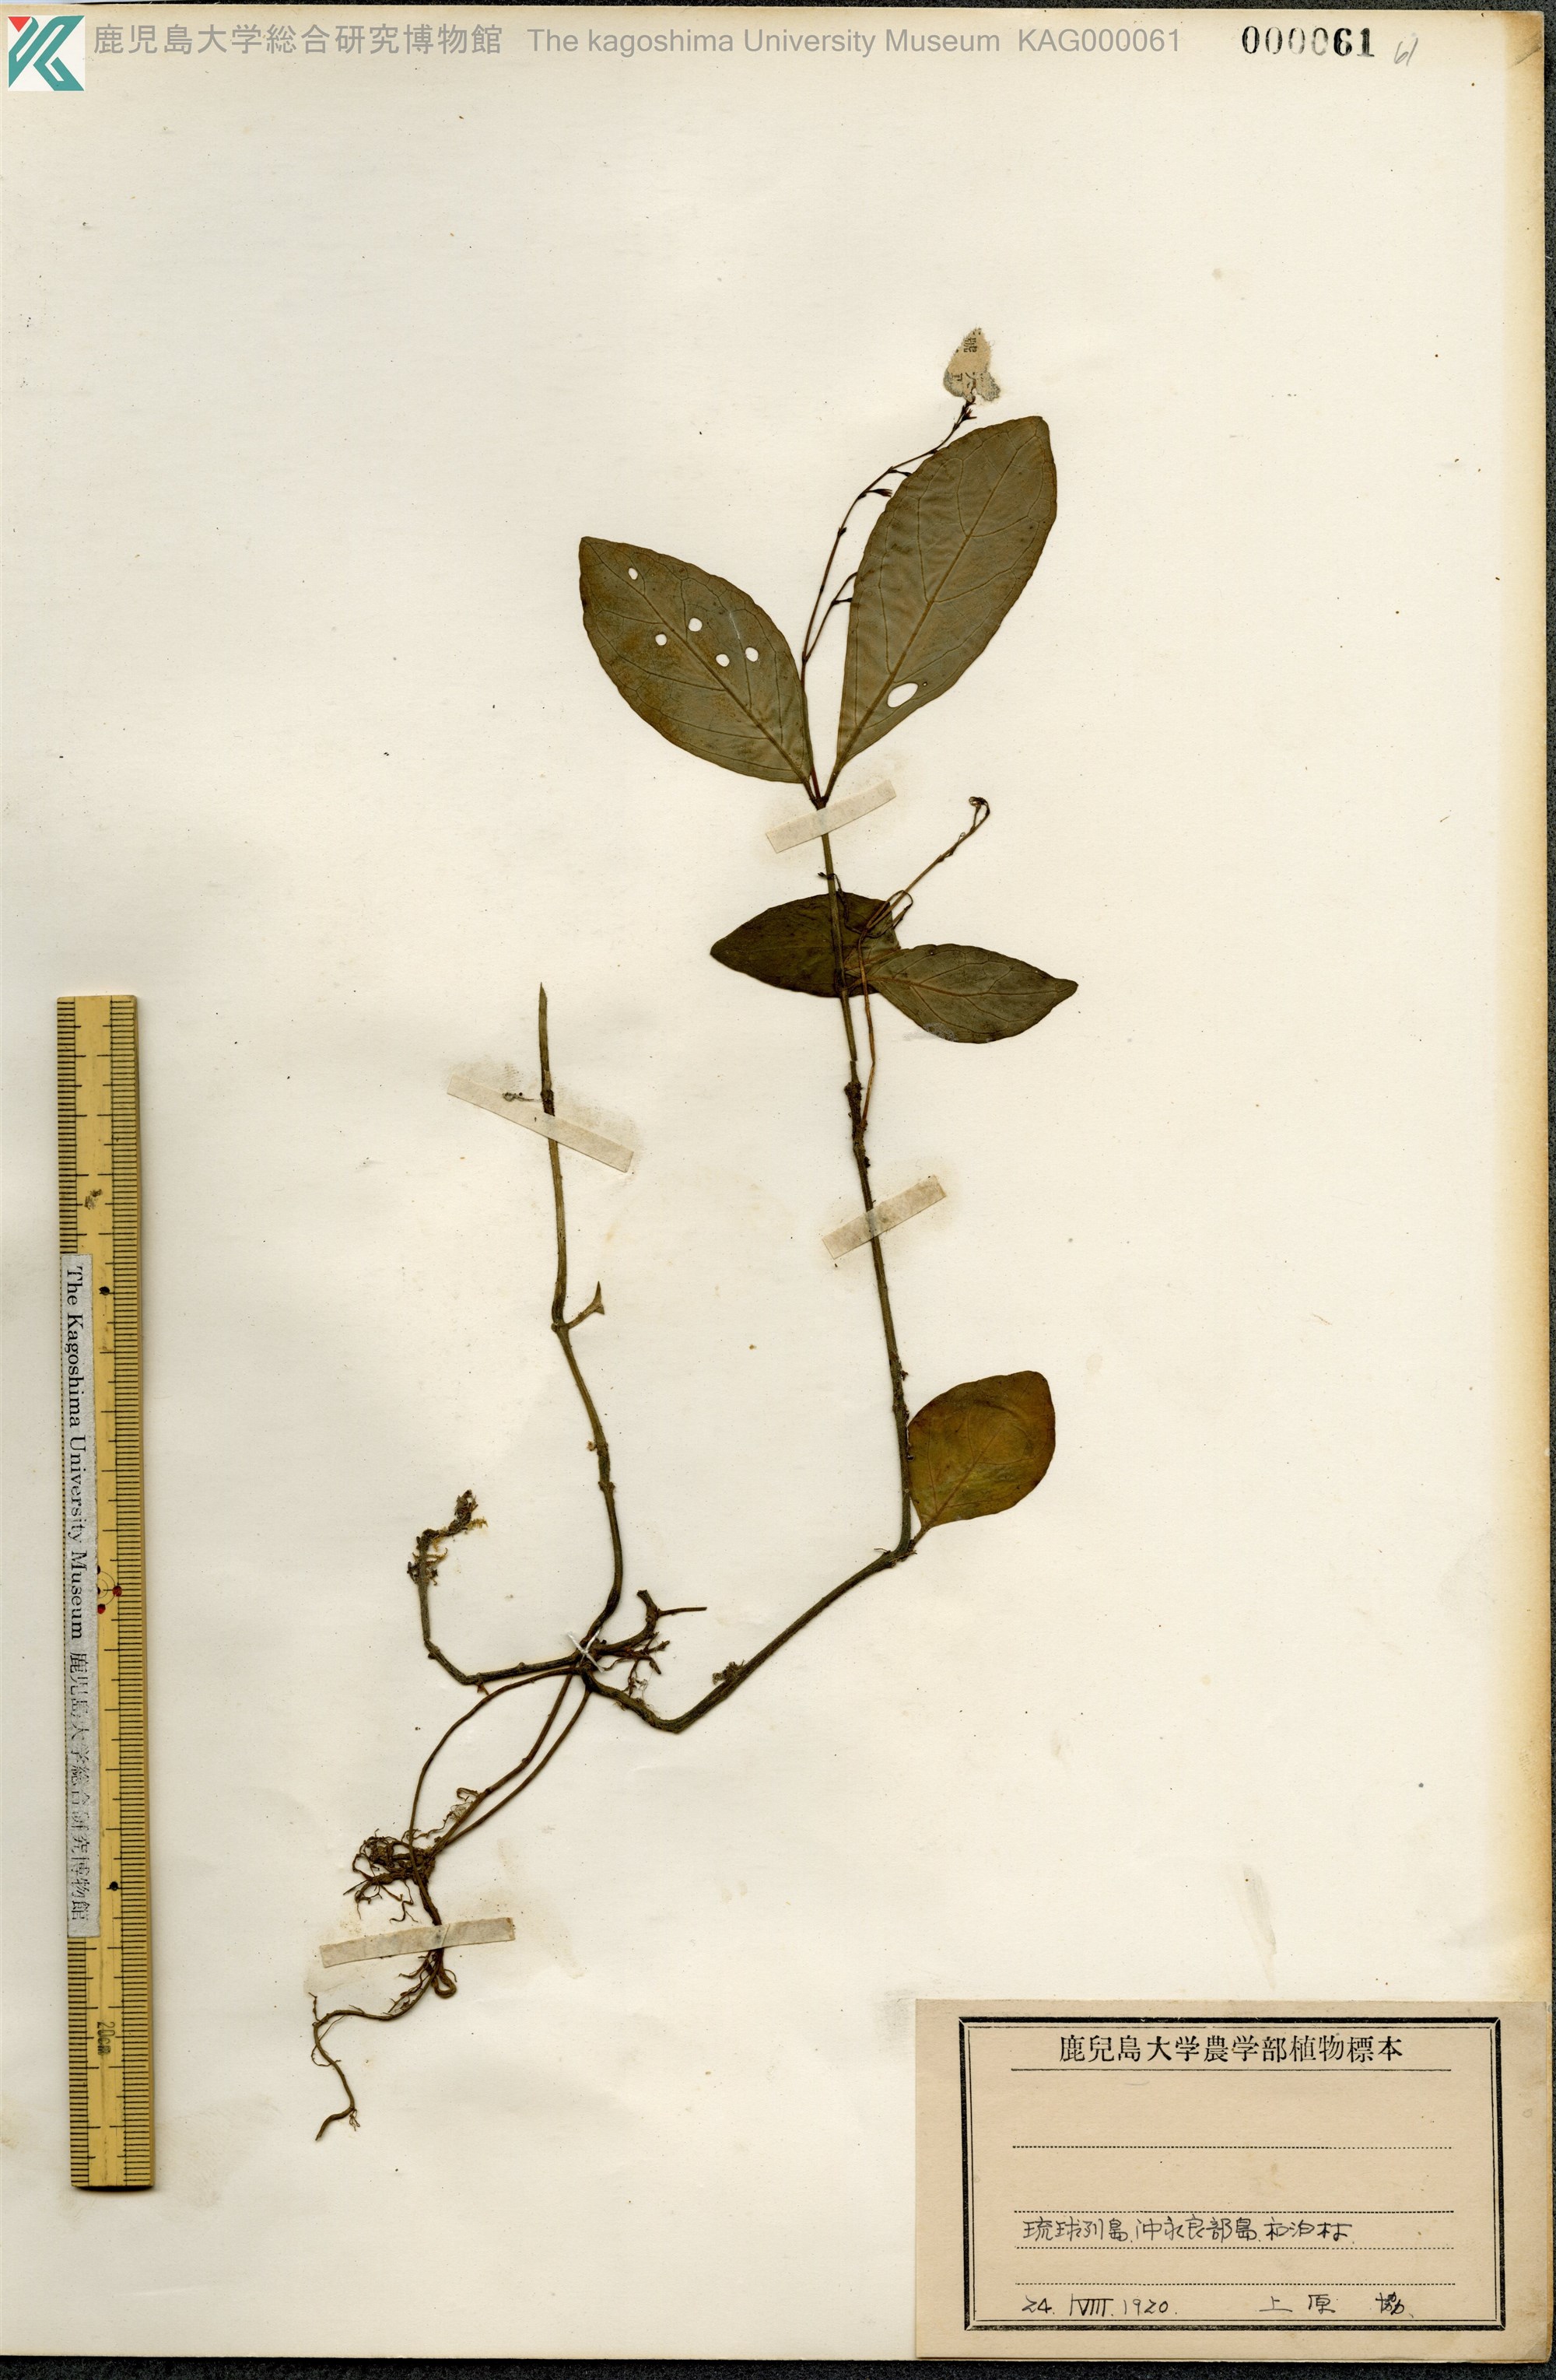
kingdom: Plantae
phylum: Tracheophyta
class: Magnoliopsida
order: Lamiales
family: Acanthaceae
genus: Codonacanthus
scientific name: Codonacanthus pauciflorus
